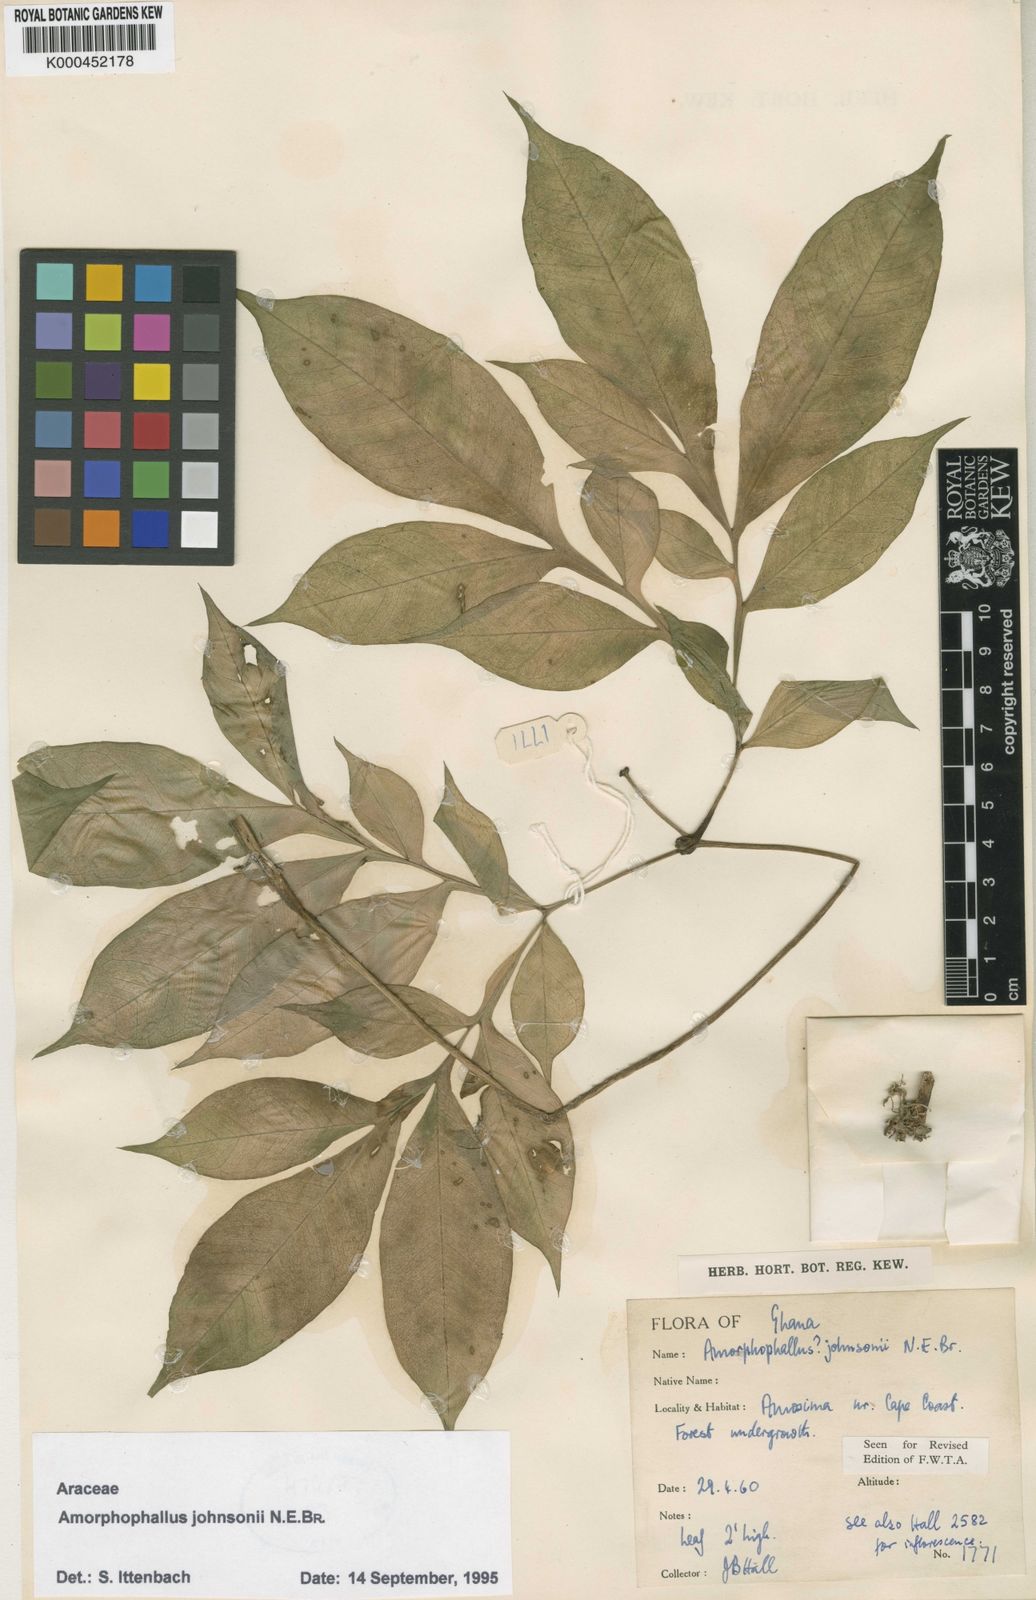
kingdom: Plantae
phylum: Tracheophyta
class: Liliopsida
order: Alismatales
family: Araceae
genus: Amorphophallus
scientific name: Amorphophallus johnsonii
